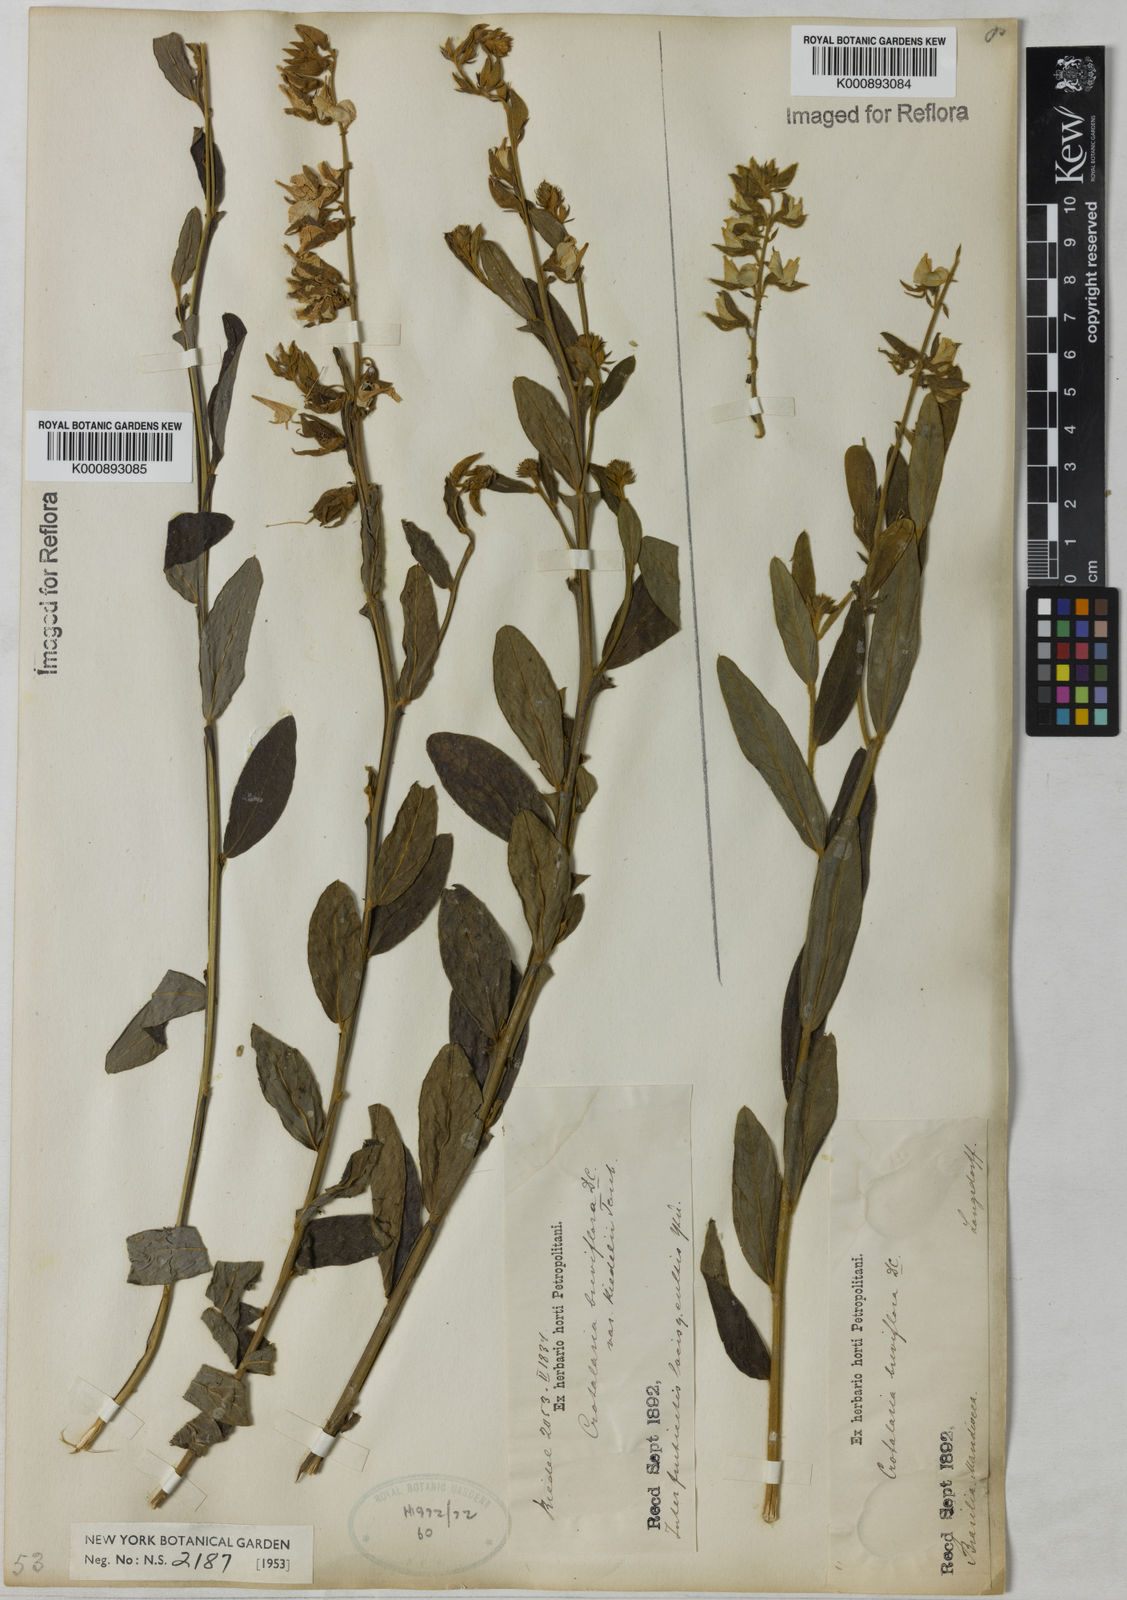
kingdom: Plantae
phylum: Tracheophyta
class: Magnoliopsida
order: Fabales
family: Fabaceae
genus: Crotalaria
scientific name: Crotalaria breviflora
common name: Short-flower crotalaria
